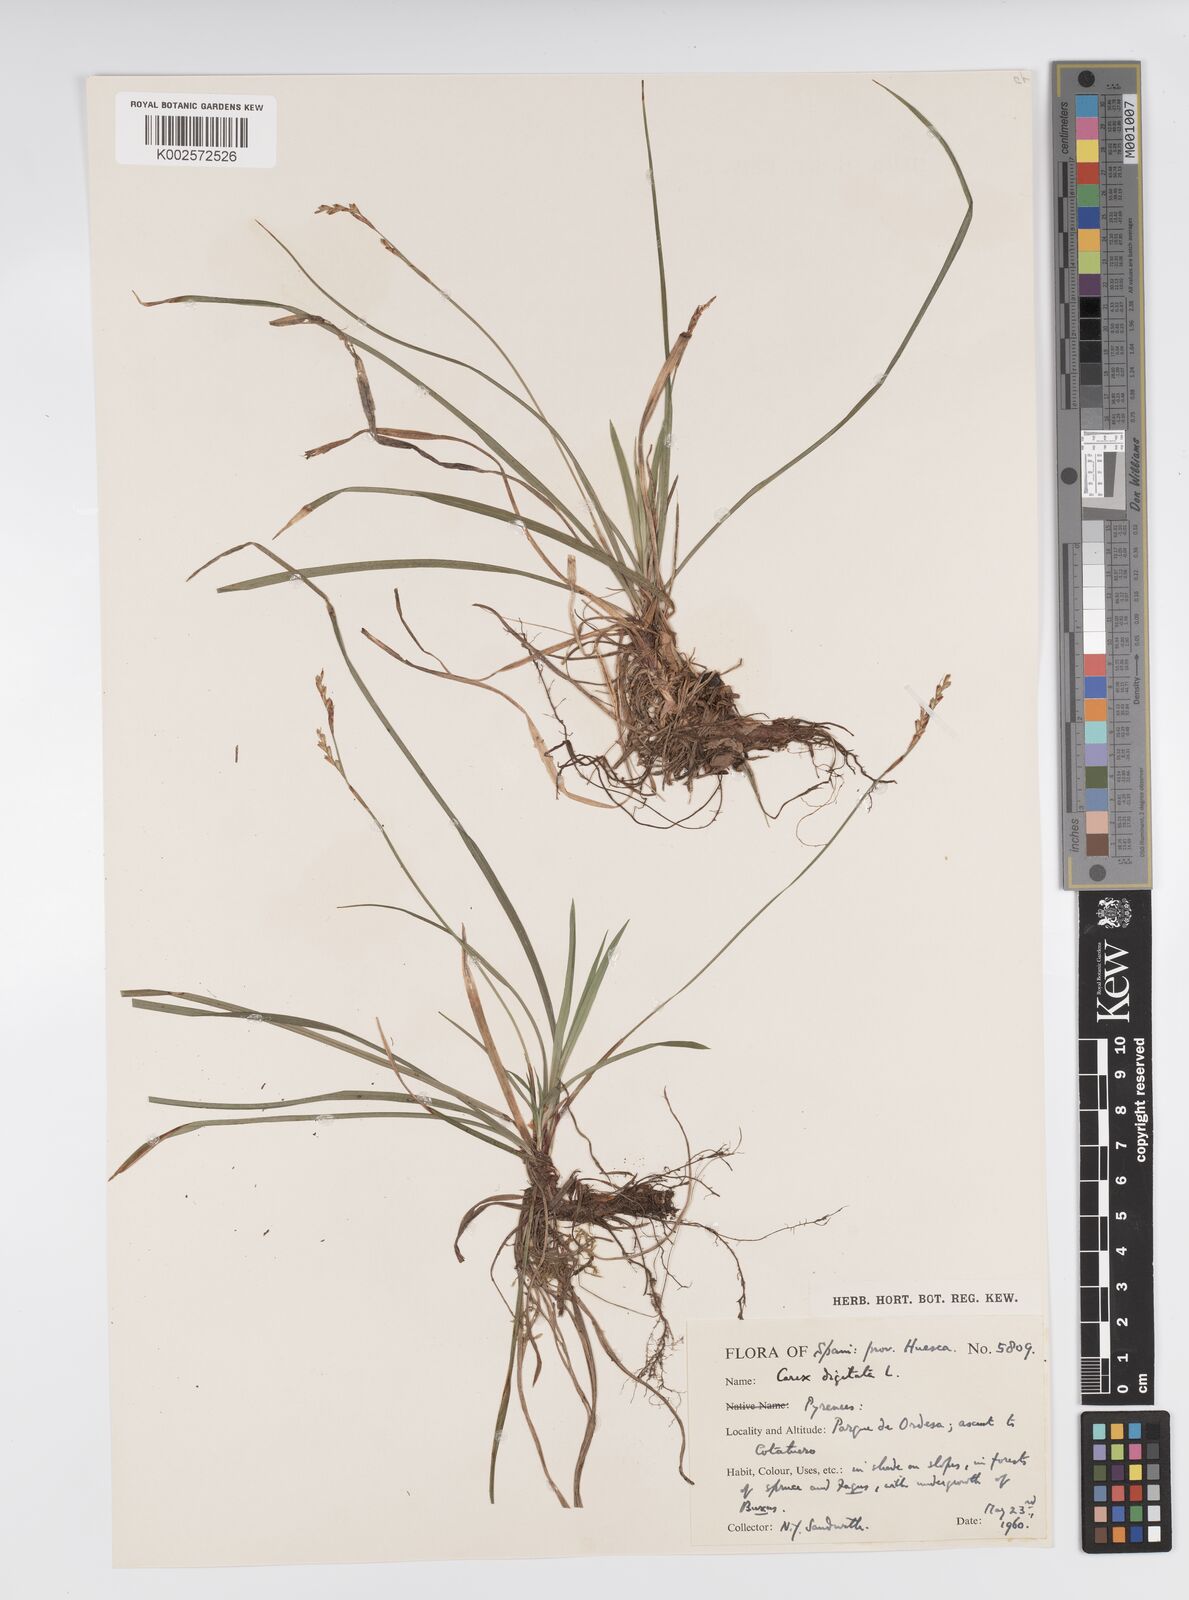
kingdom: Plantae
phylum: Tracheophyta
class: Liliopsida
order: Poales
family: Cyperaceae
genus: Carex
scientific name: Carex digitata
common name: Fingered sedge
